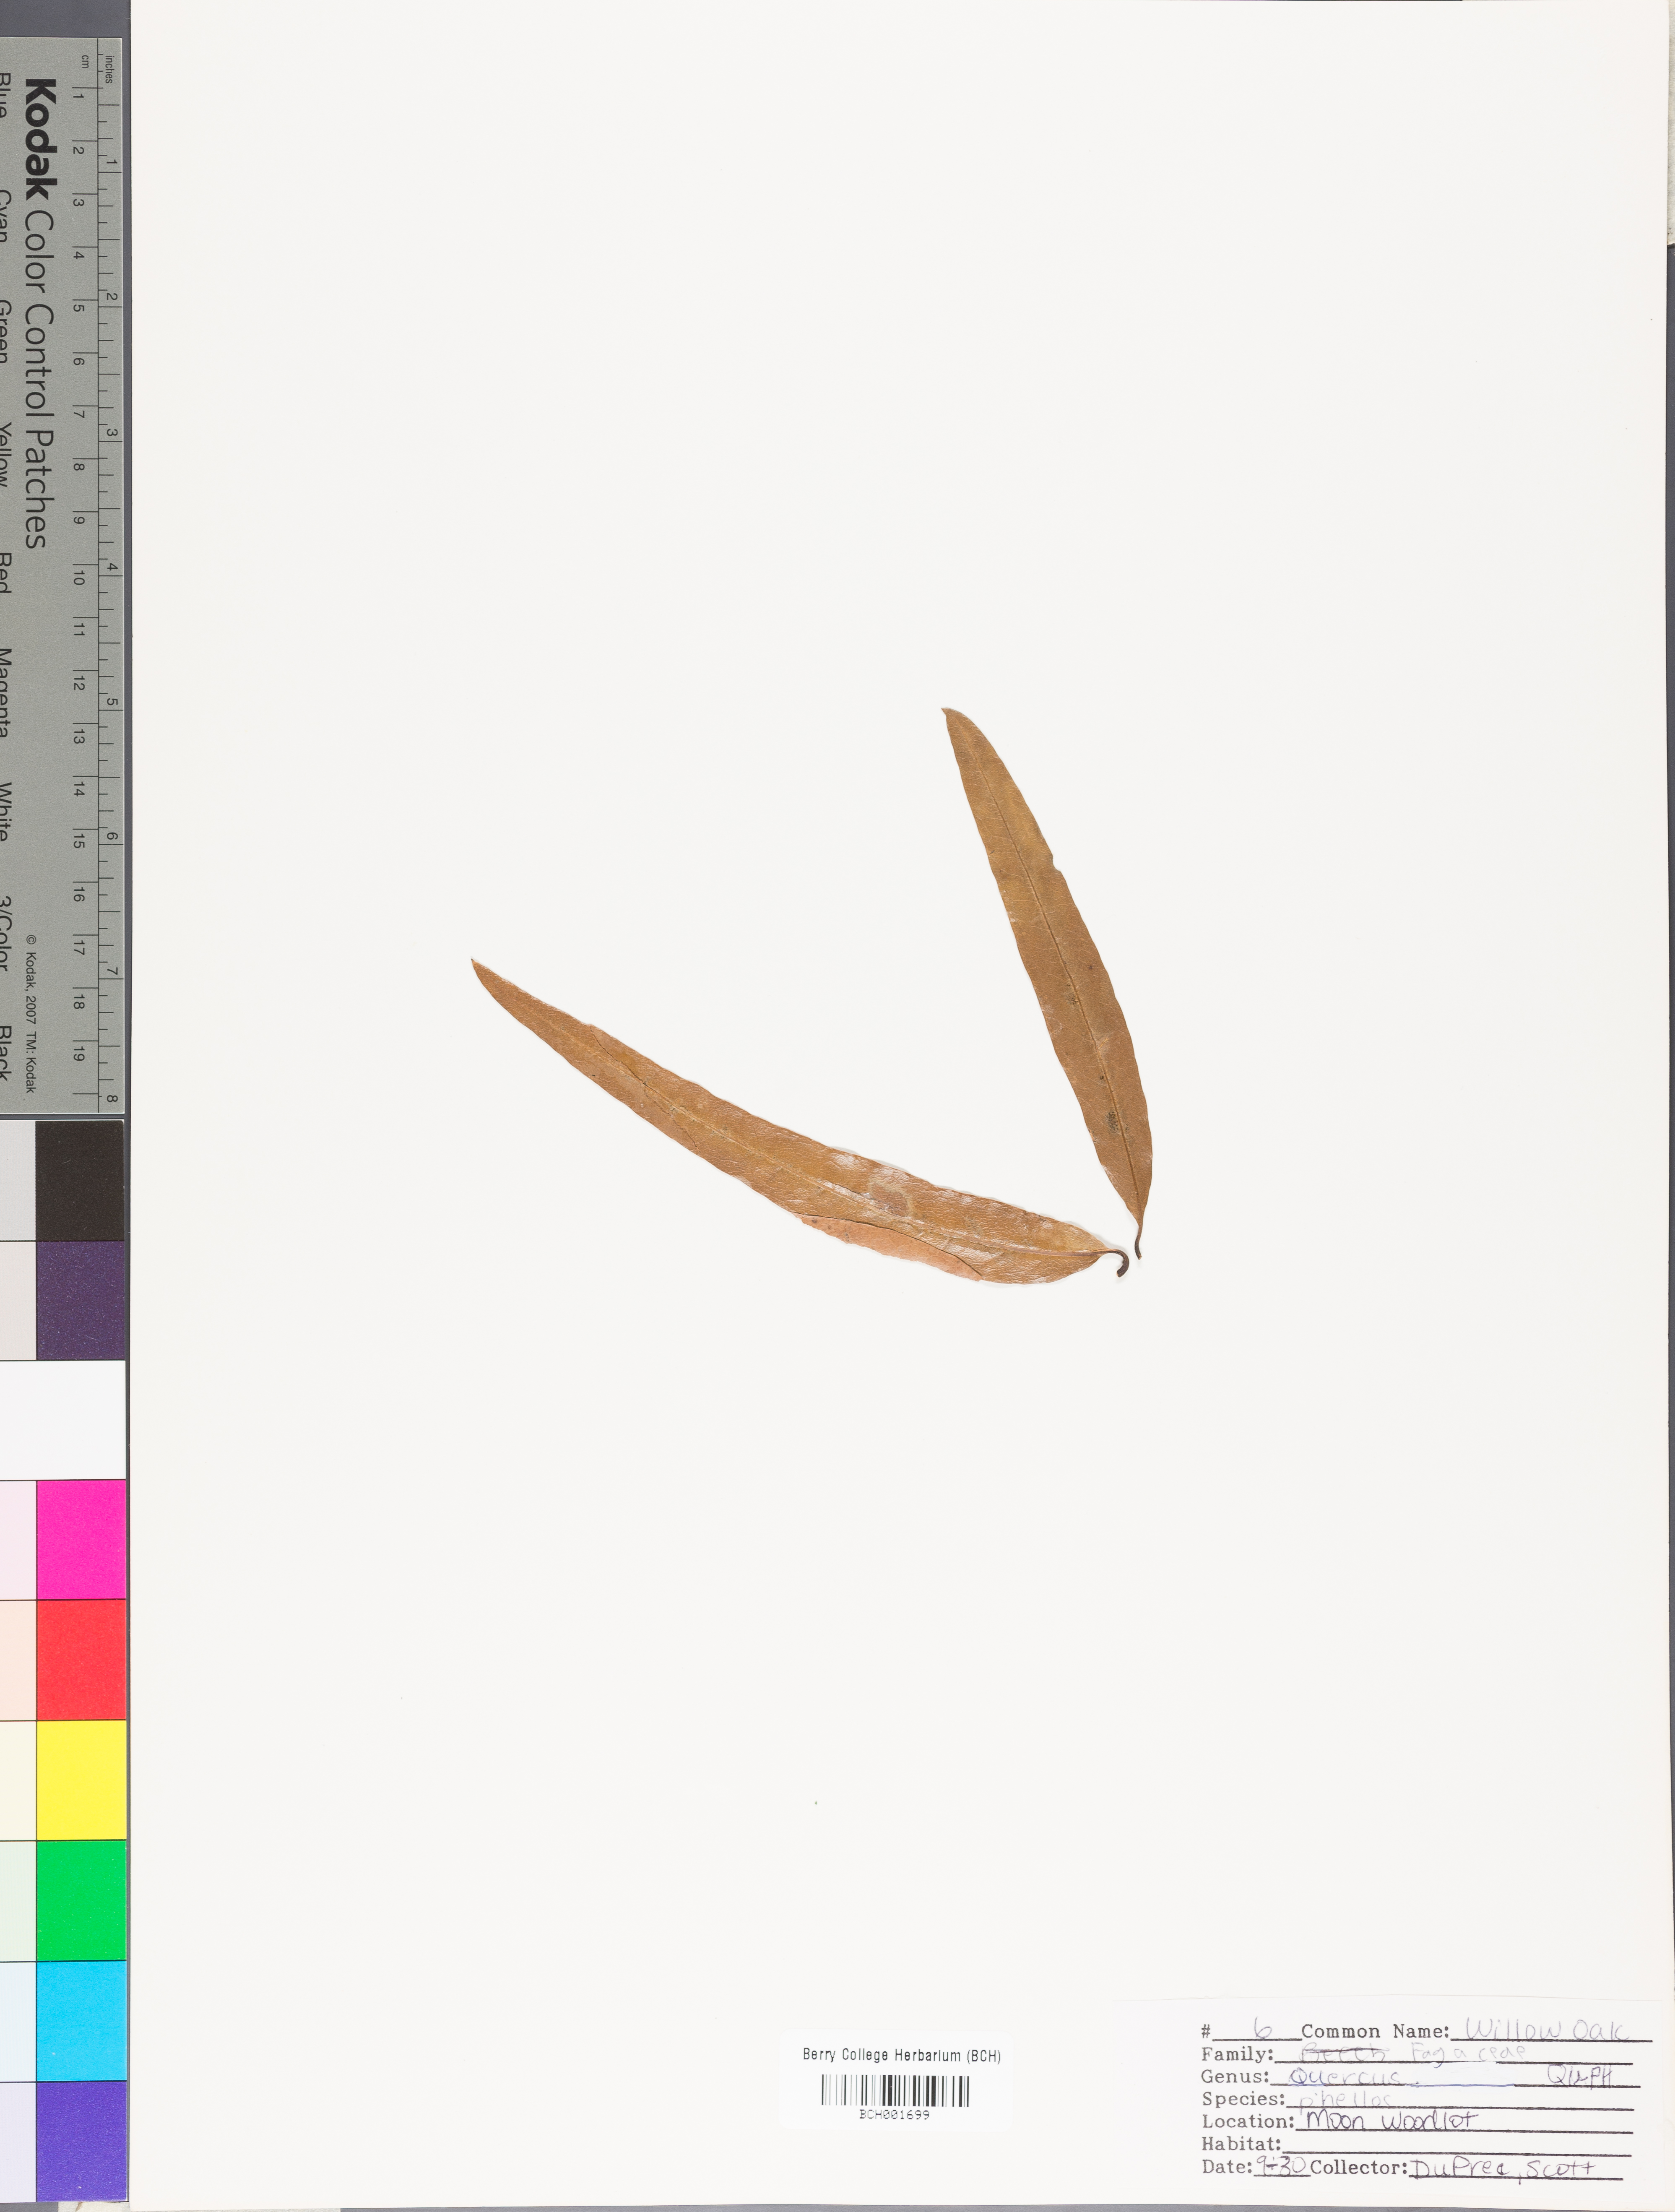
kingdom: Plantae
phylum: Tracheophyta
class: Magnoliopsida
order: Fagales
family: Fagaceae
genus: Quercus
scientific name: Quercus phellos
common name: Willow oak
